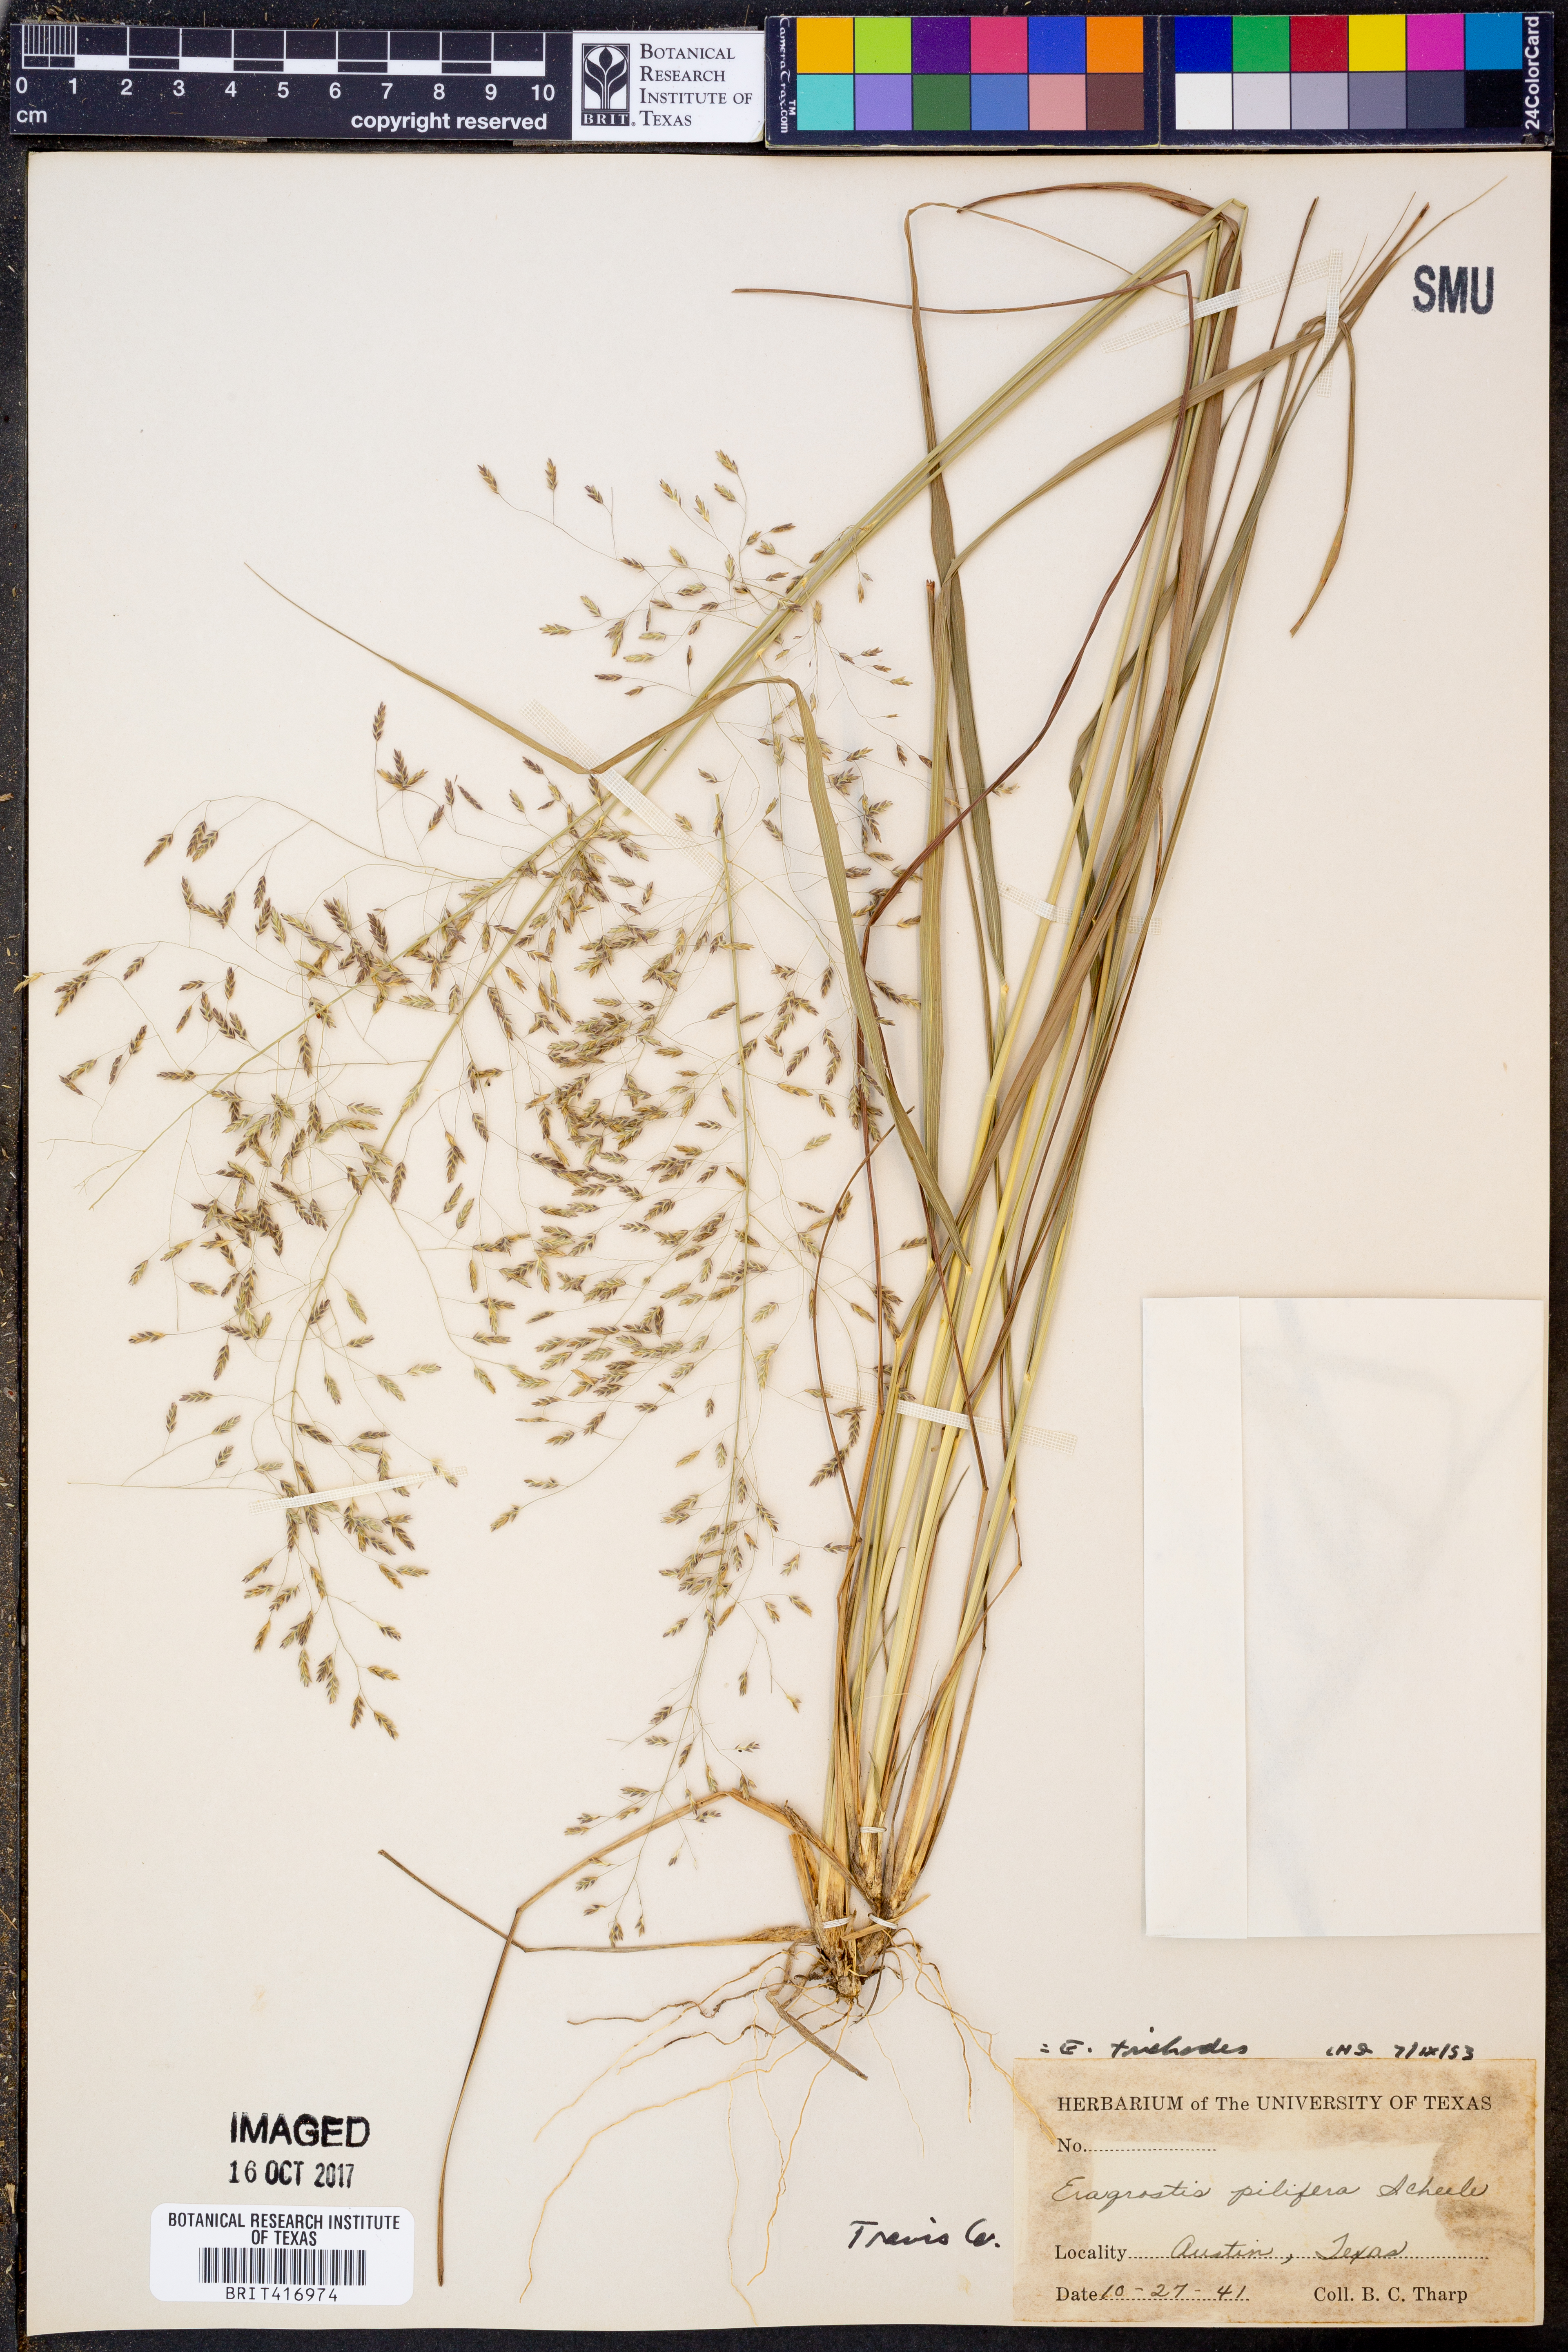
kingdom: Plantae
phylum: Tracheophyta
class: Liliopsida
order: Poales
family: Poaceae
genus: Eragrostis
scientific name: Eragrostis trichodes
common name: Sand love grass
